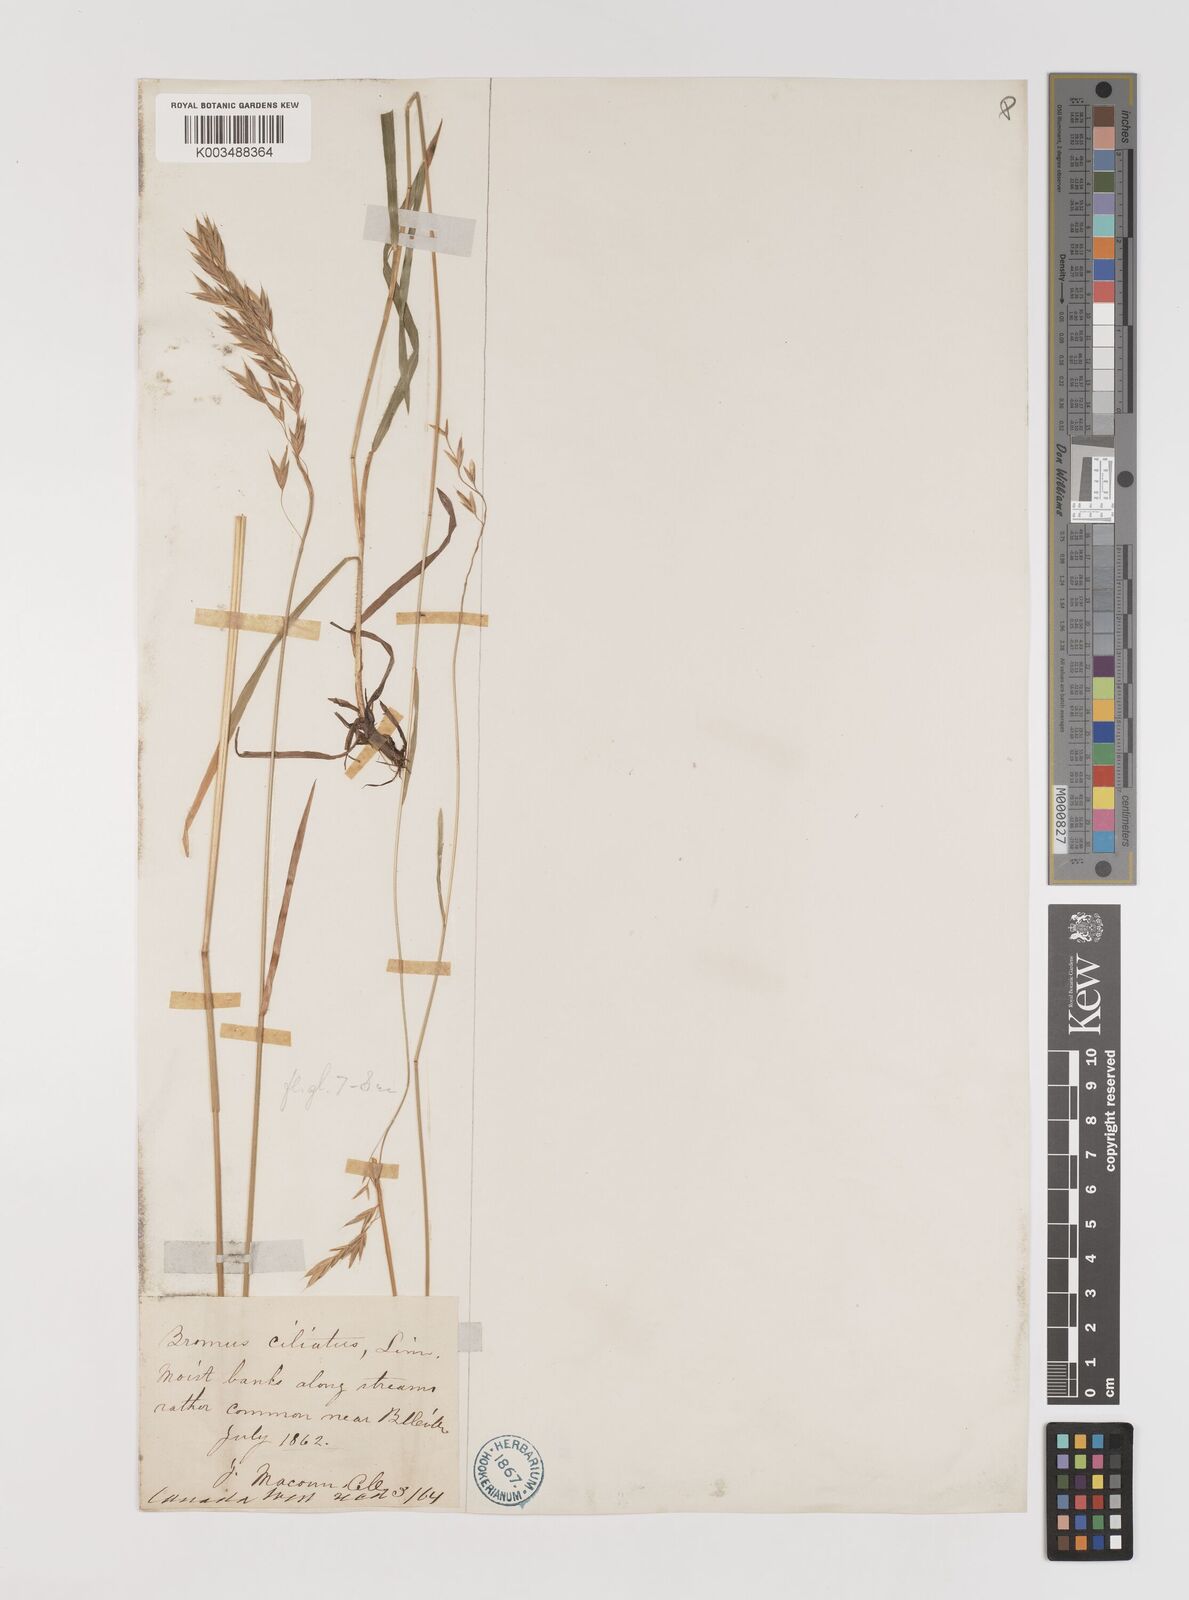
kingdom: Plantae
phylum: Tracheophyta
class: Liliopsida
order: Poales
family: Poaceae
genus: Bromus
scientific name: Bromus ciliatus
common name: Fringe brome
